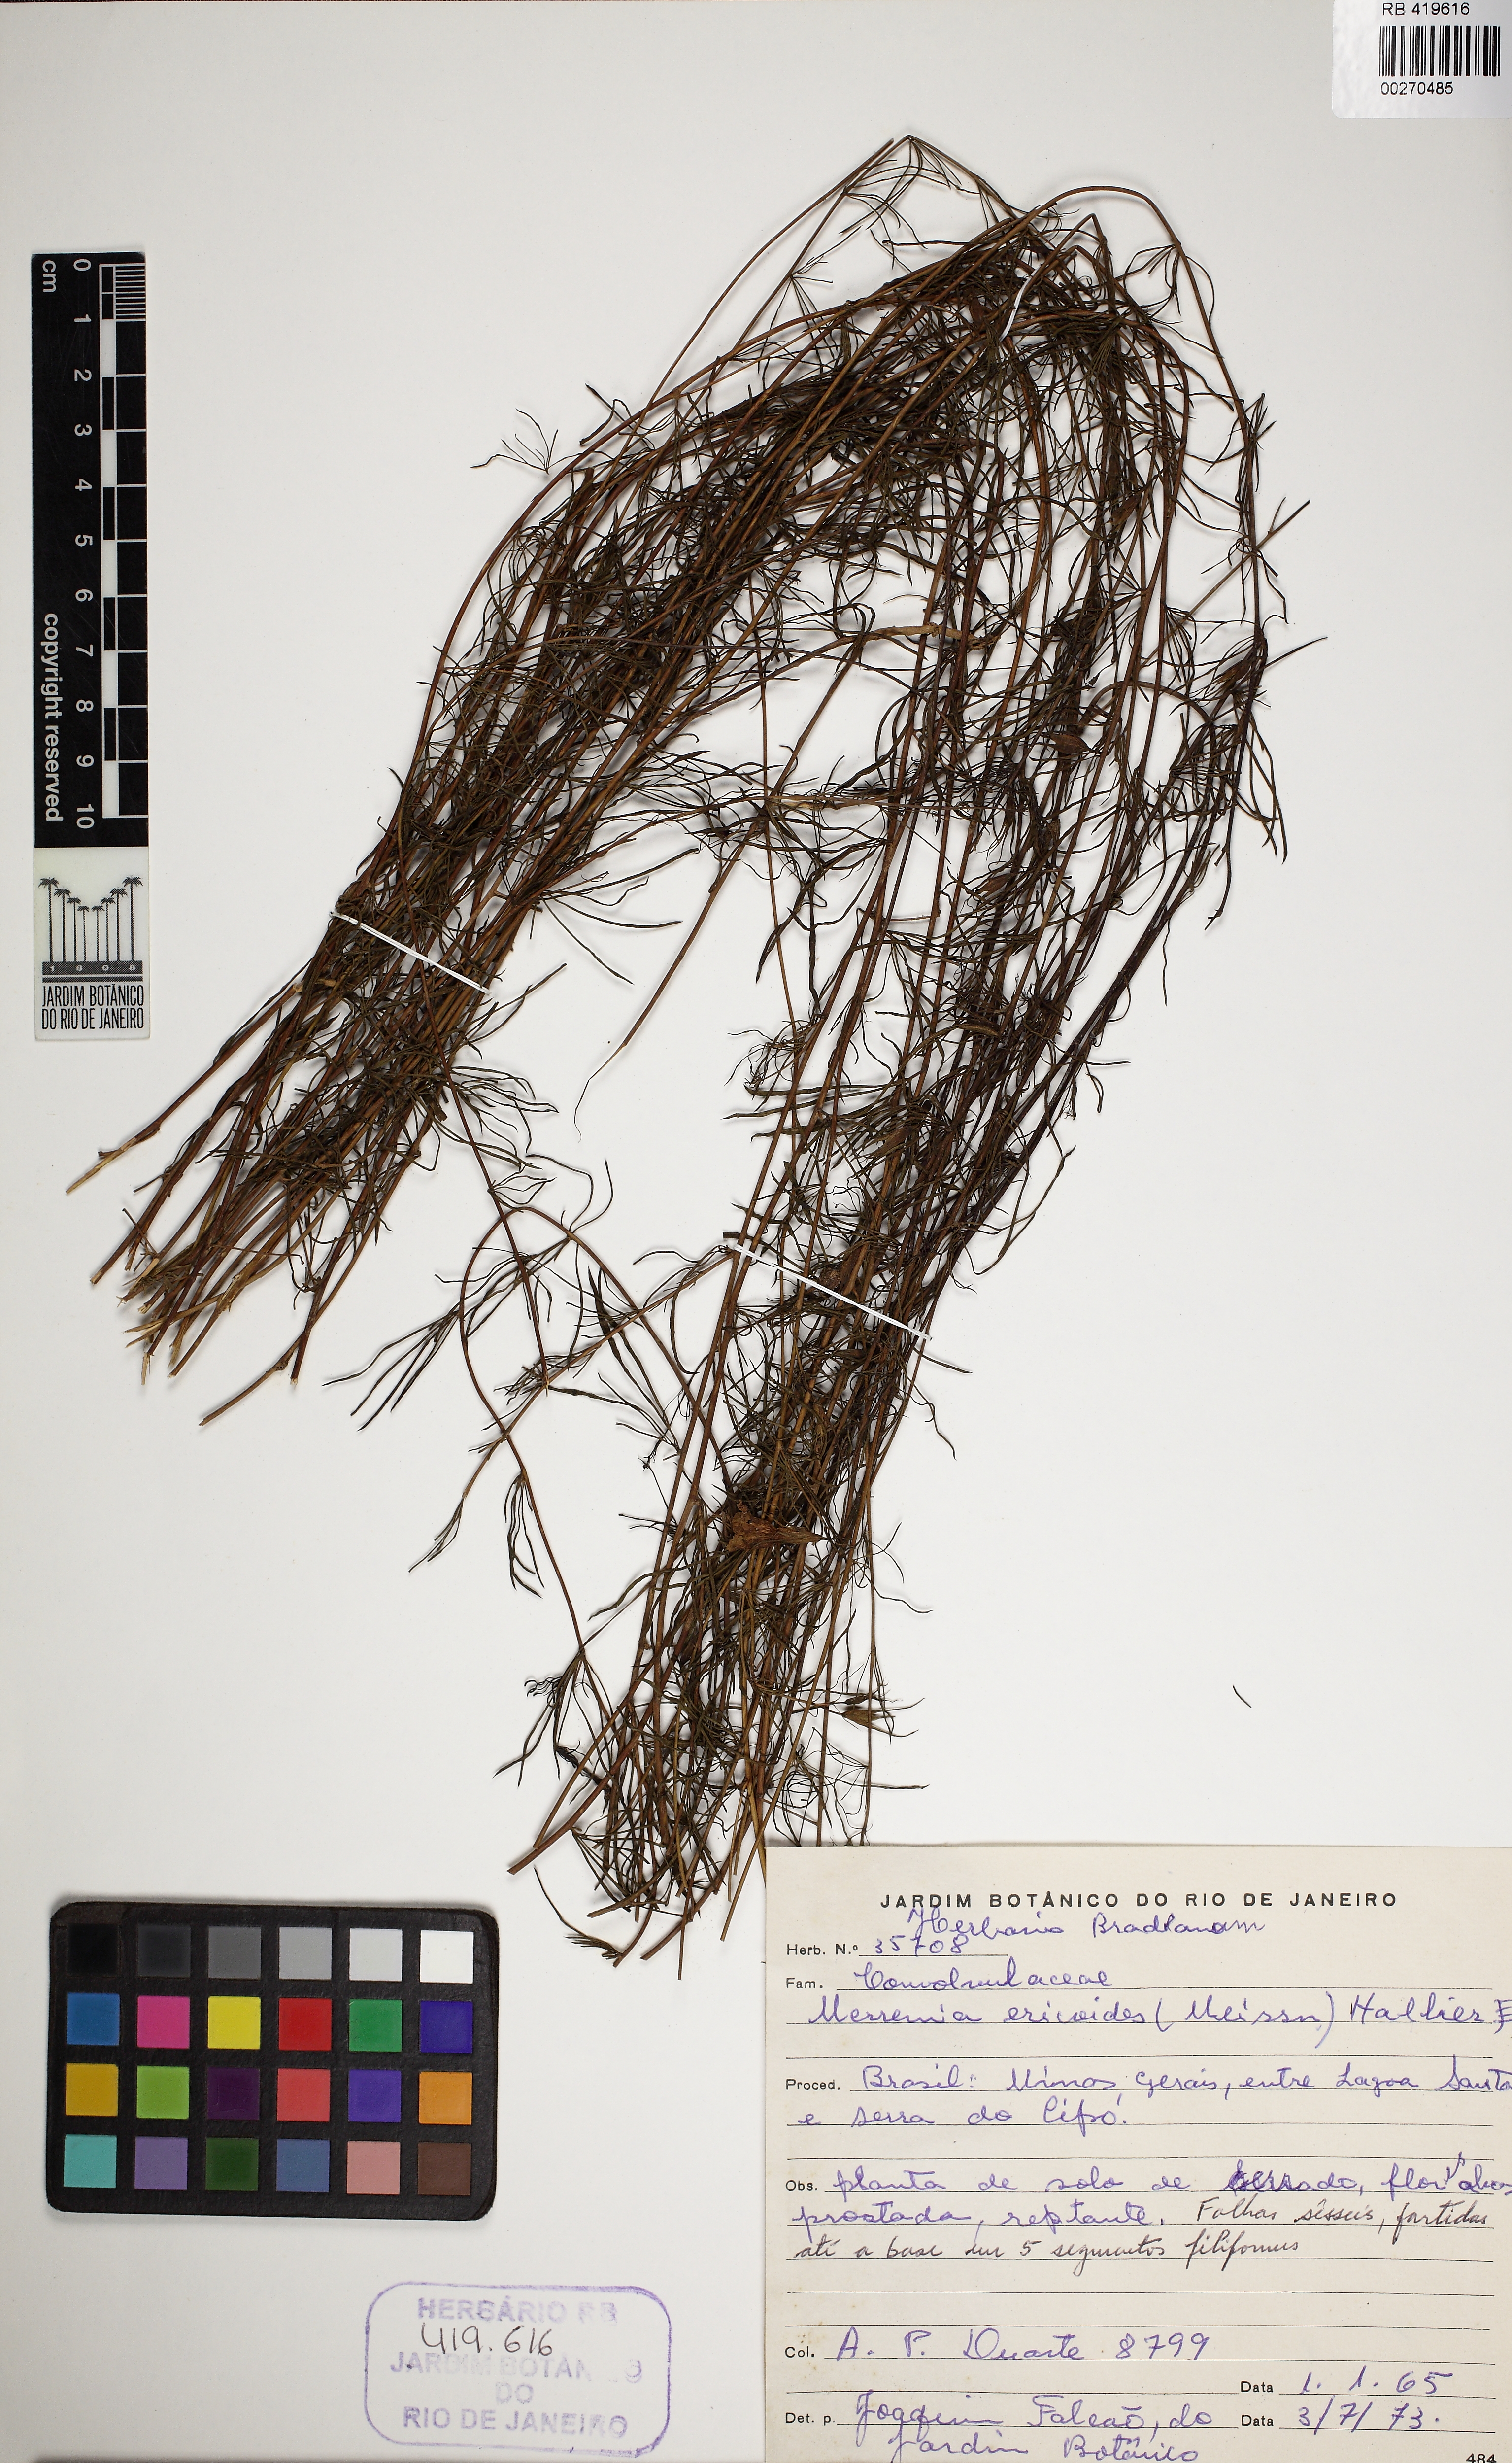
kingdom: Plantae
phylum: Tracheophyta
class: Magnoliopsida
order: Solanales
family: Convolvulaceae
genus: Distimake
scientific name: Distimake flagellaris
